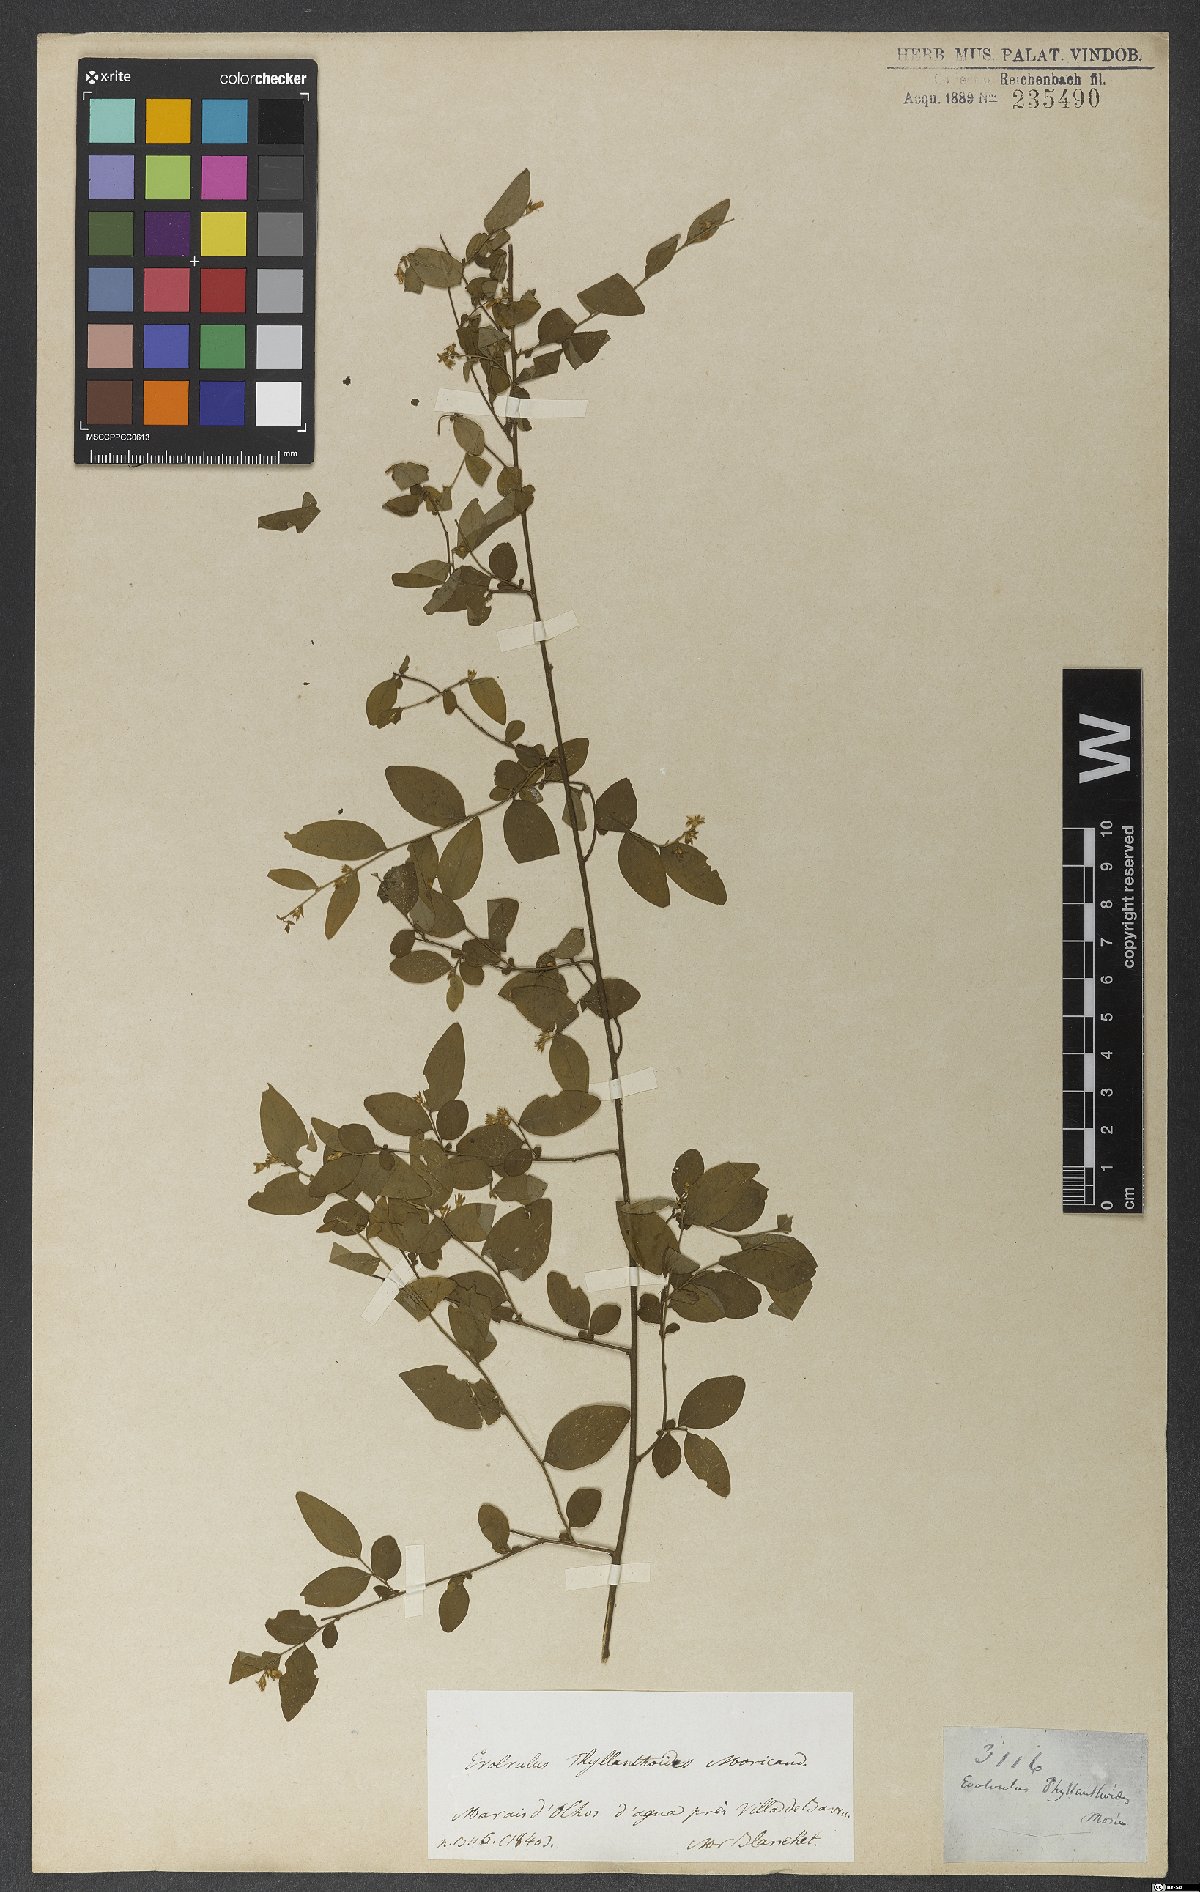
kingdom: Plantae
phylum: Tracheophyta
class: Magnoliopsida
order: Solanales
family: Convolvulaceae
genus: Evolvulus
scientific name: Evolvulus phyllanthoides
